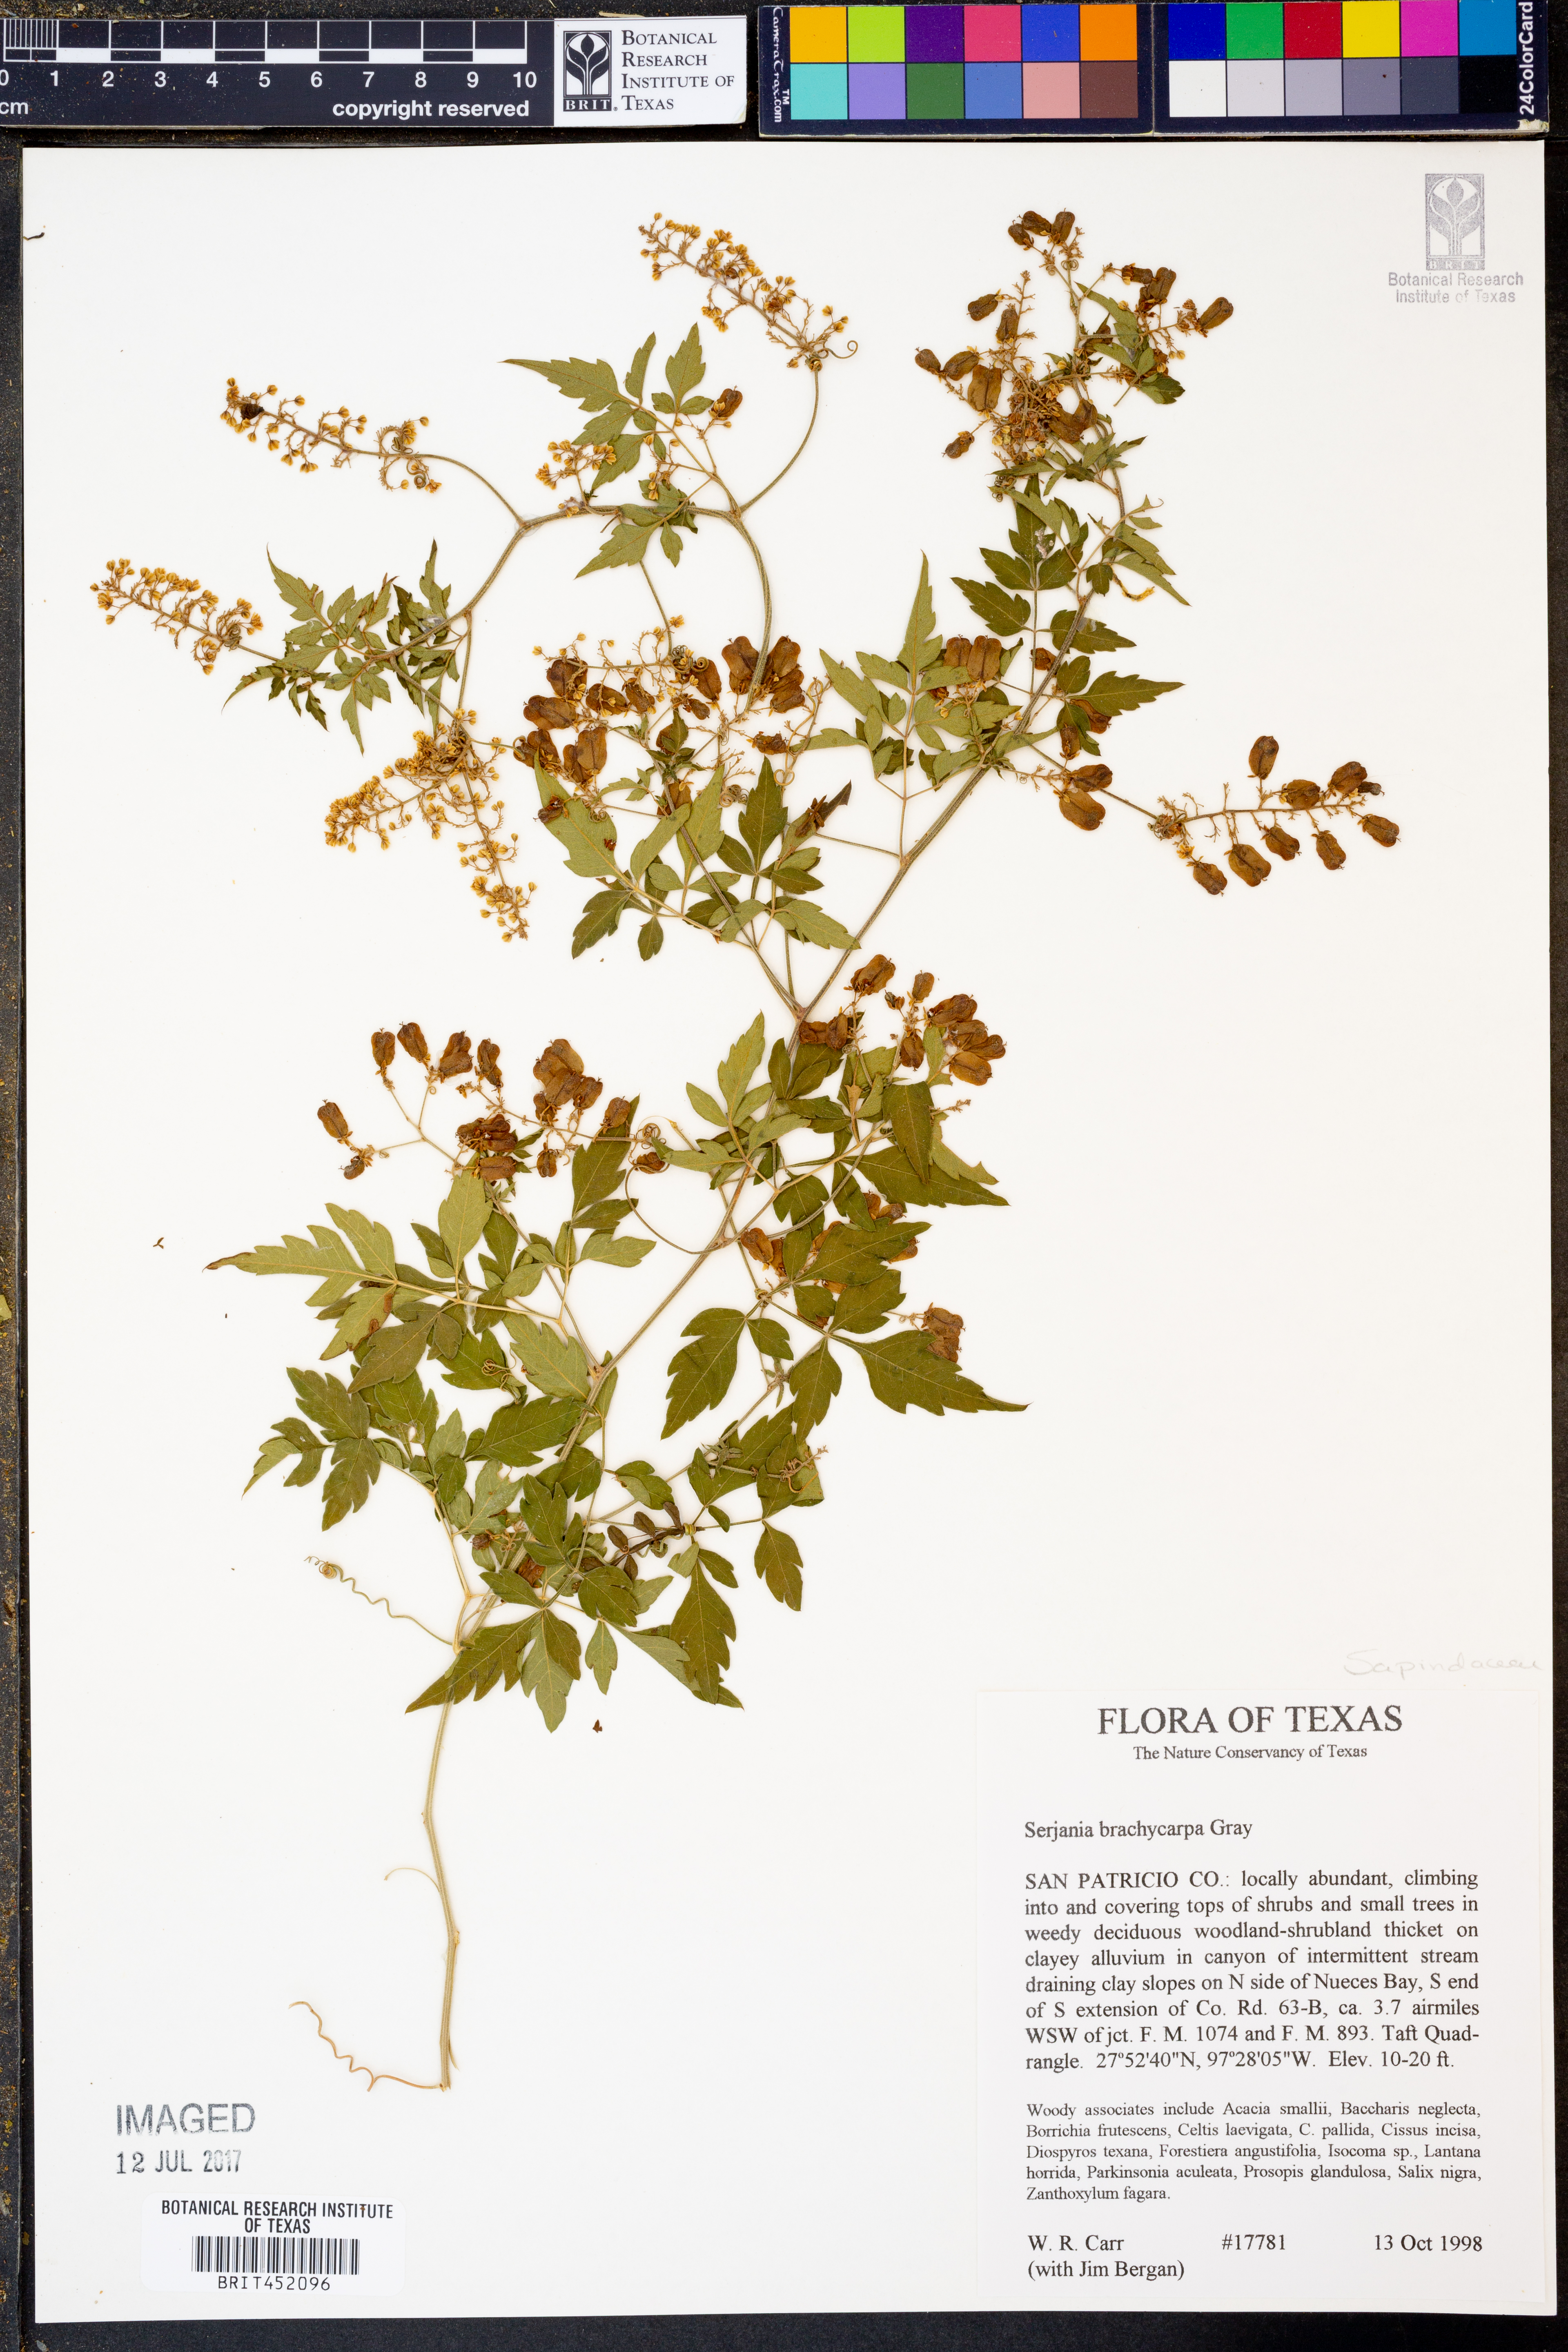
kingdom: Plantae
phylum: Tracheophyta
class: Magnoliopsida
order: Sapindales
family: Sapindaceae
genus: Serjania
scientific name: Serjania brachycarpa
